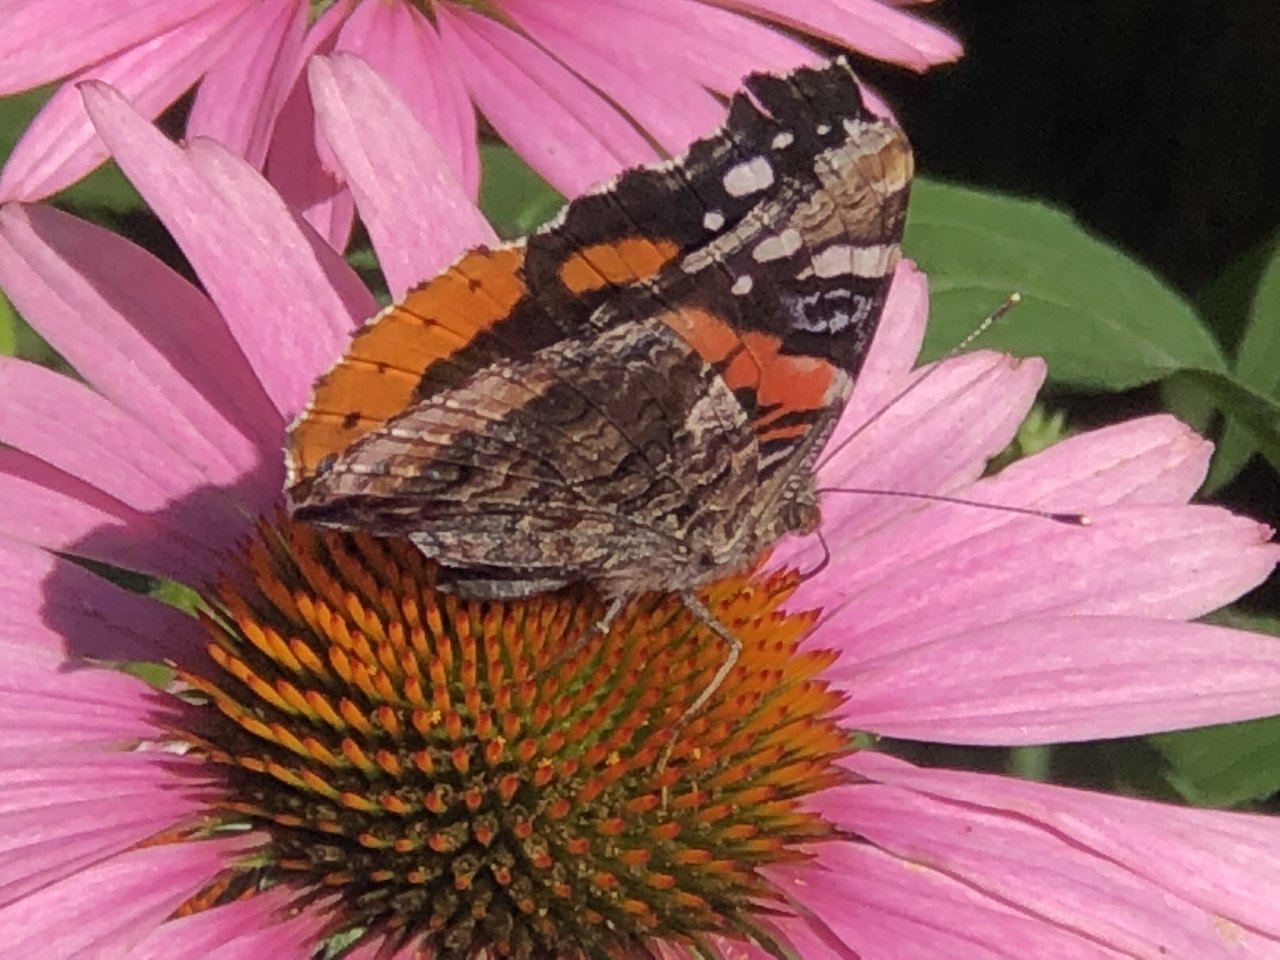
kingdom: Animalia
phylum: Arthropoda
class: Insecta
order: Lepidoptera
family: Nymphalidae
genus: Vanessa
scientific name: Vanessa atalanta
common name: Red Admiral
